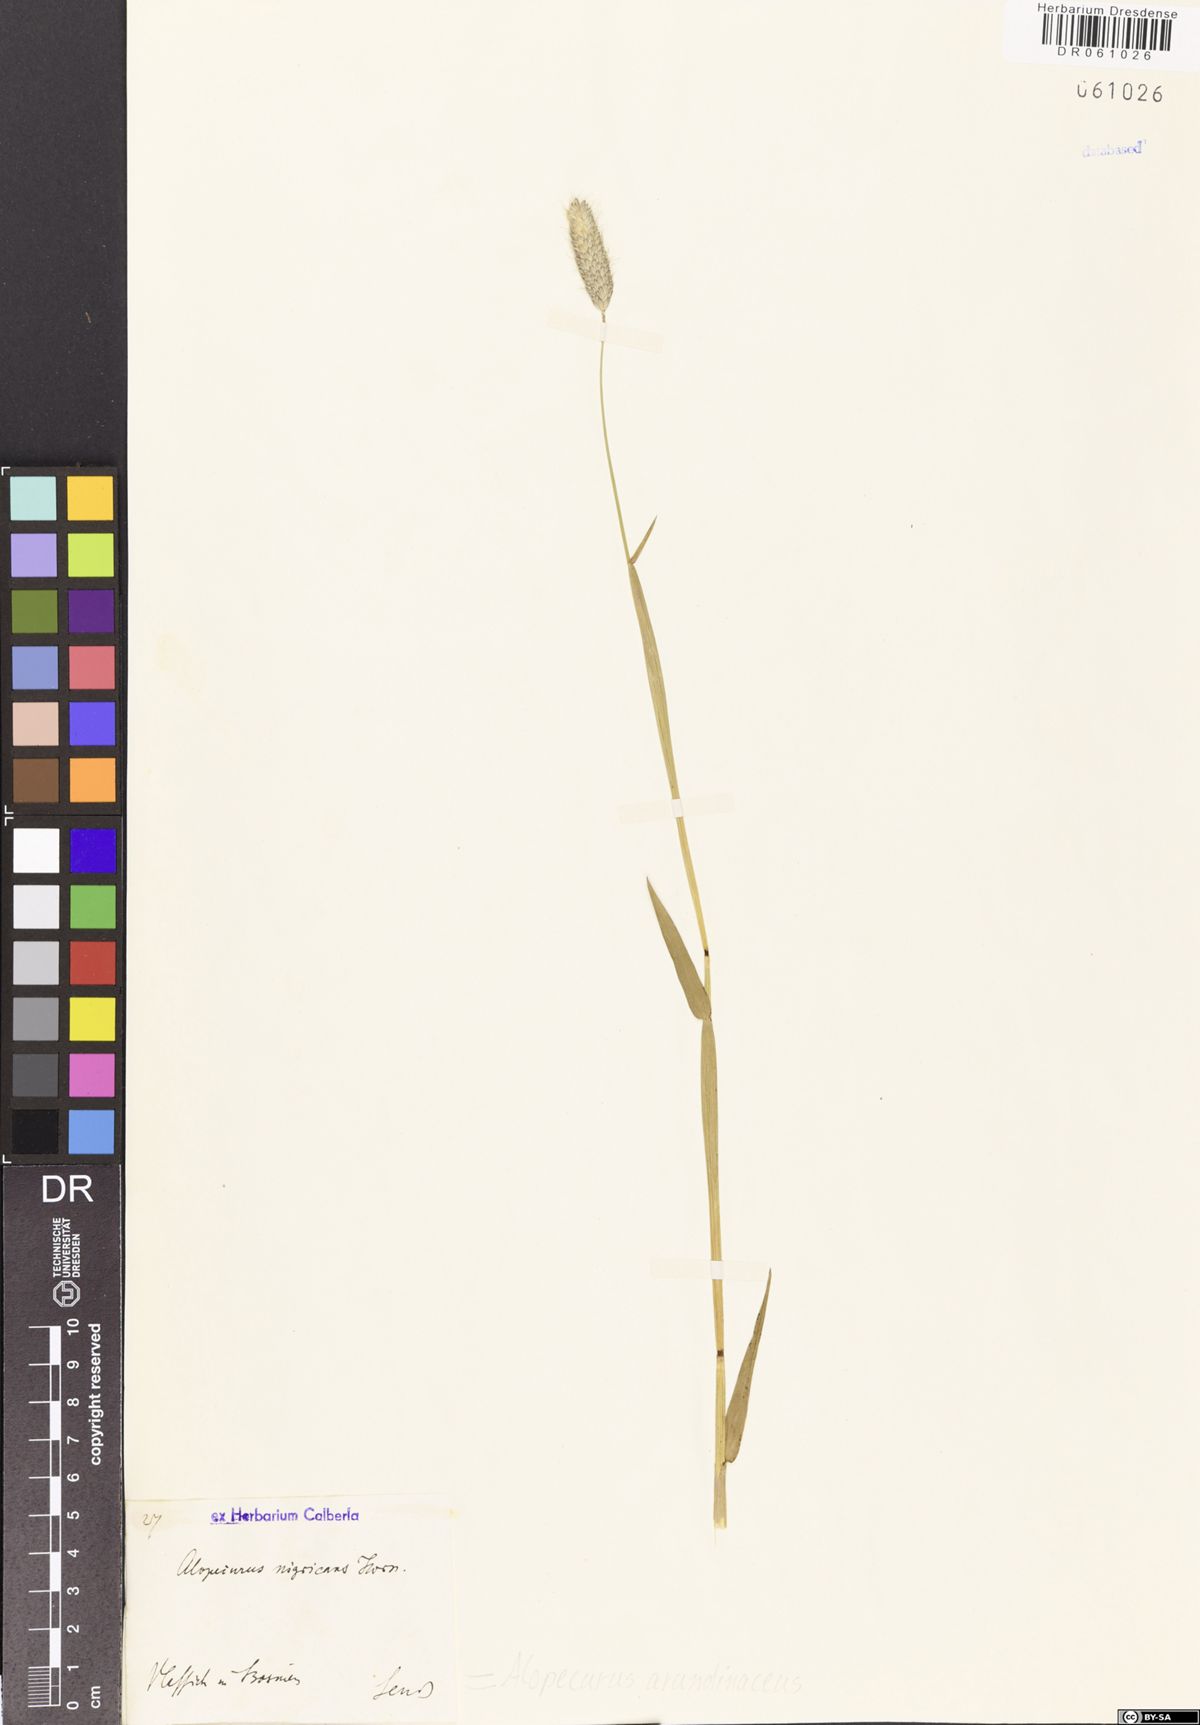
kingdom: Plantae
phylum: Tracheophyta
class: Liliopsida
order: Poales
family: Poaceae
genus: Alopecurus
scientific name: Alopecurus arundinaceus
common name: Creeping meadow foxtail
